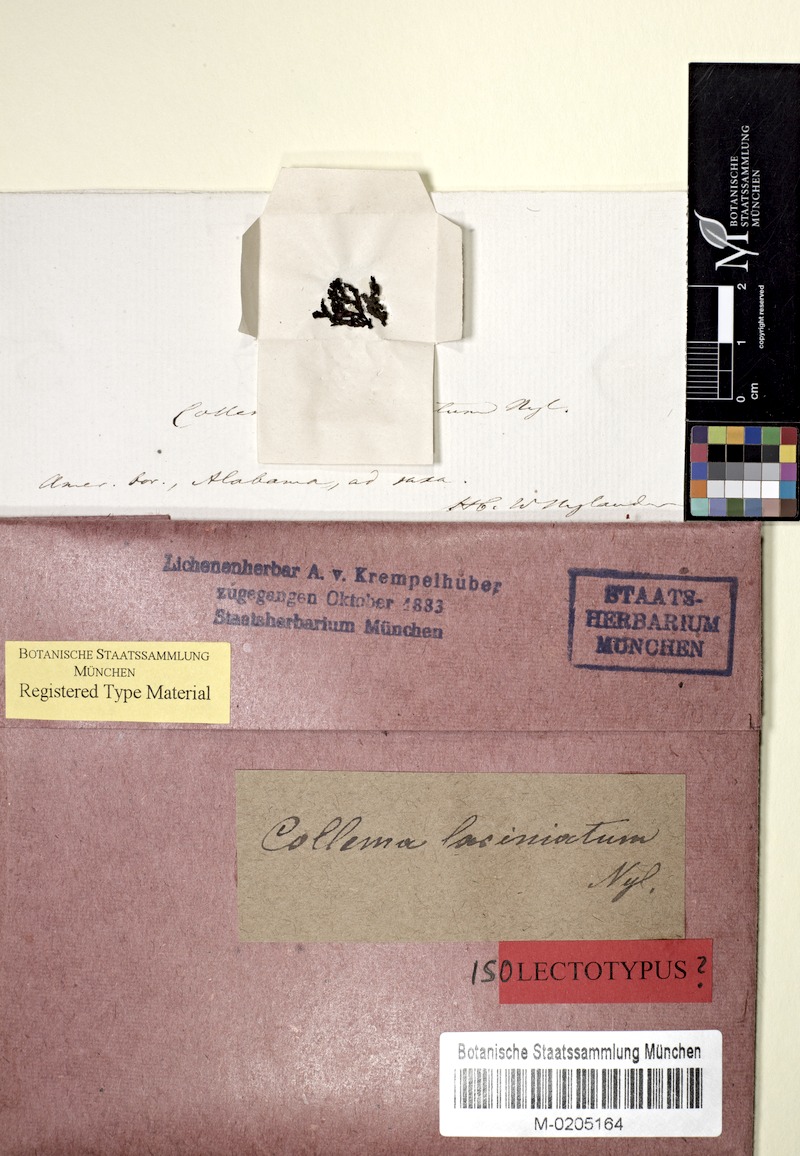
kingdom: Fungi
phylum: Ascomycota
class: Lecanoromycetes
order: Peltigerales
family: Collemataceae
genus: Collema
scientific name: Collema texanum
